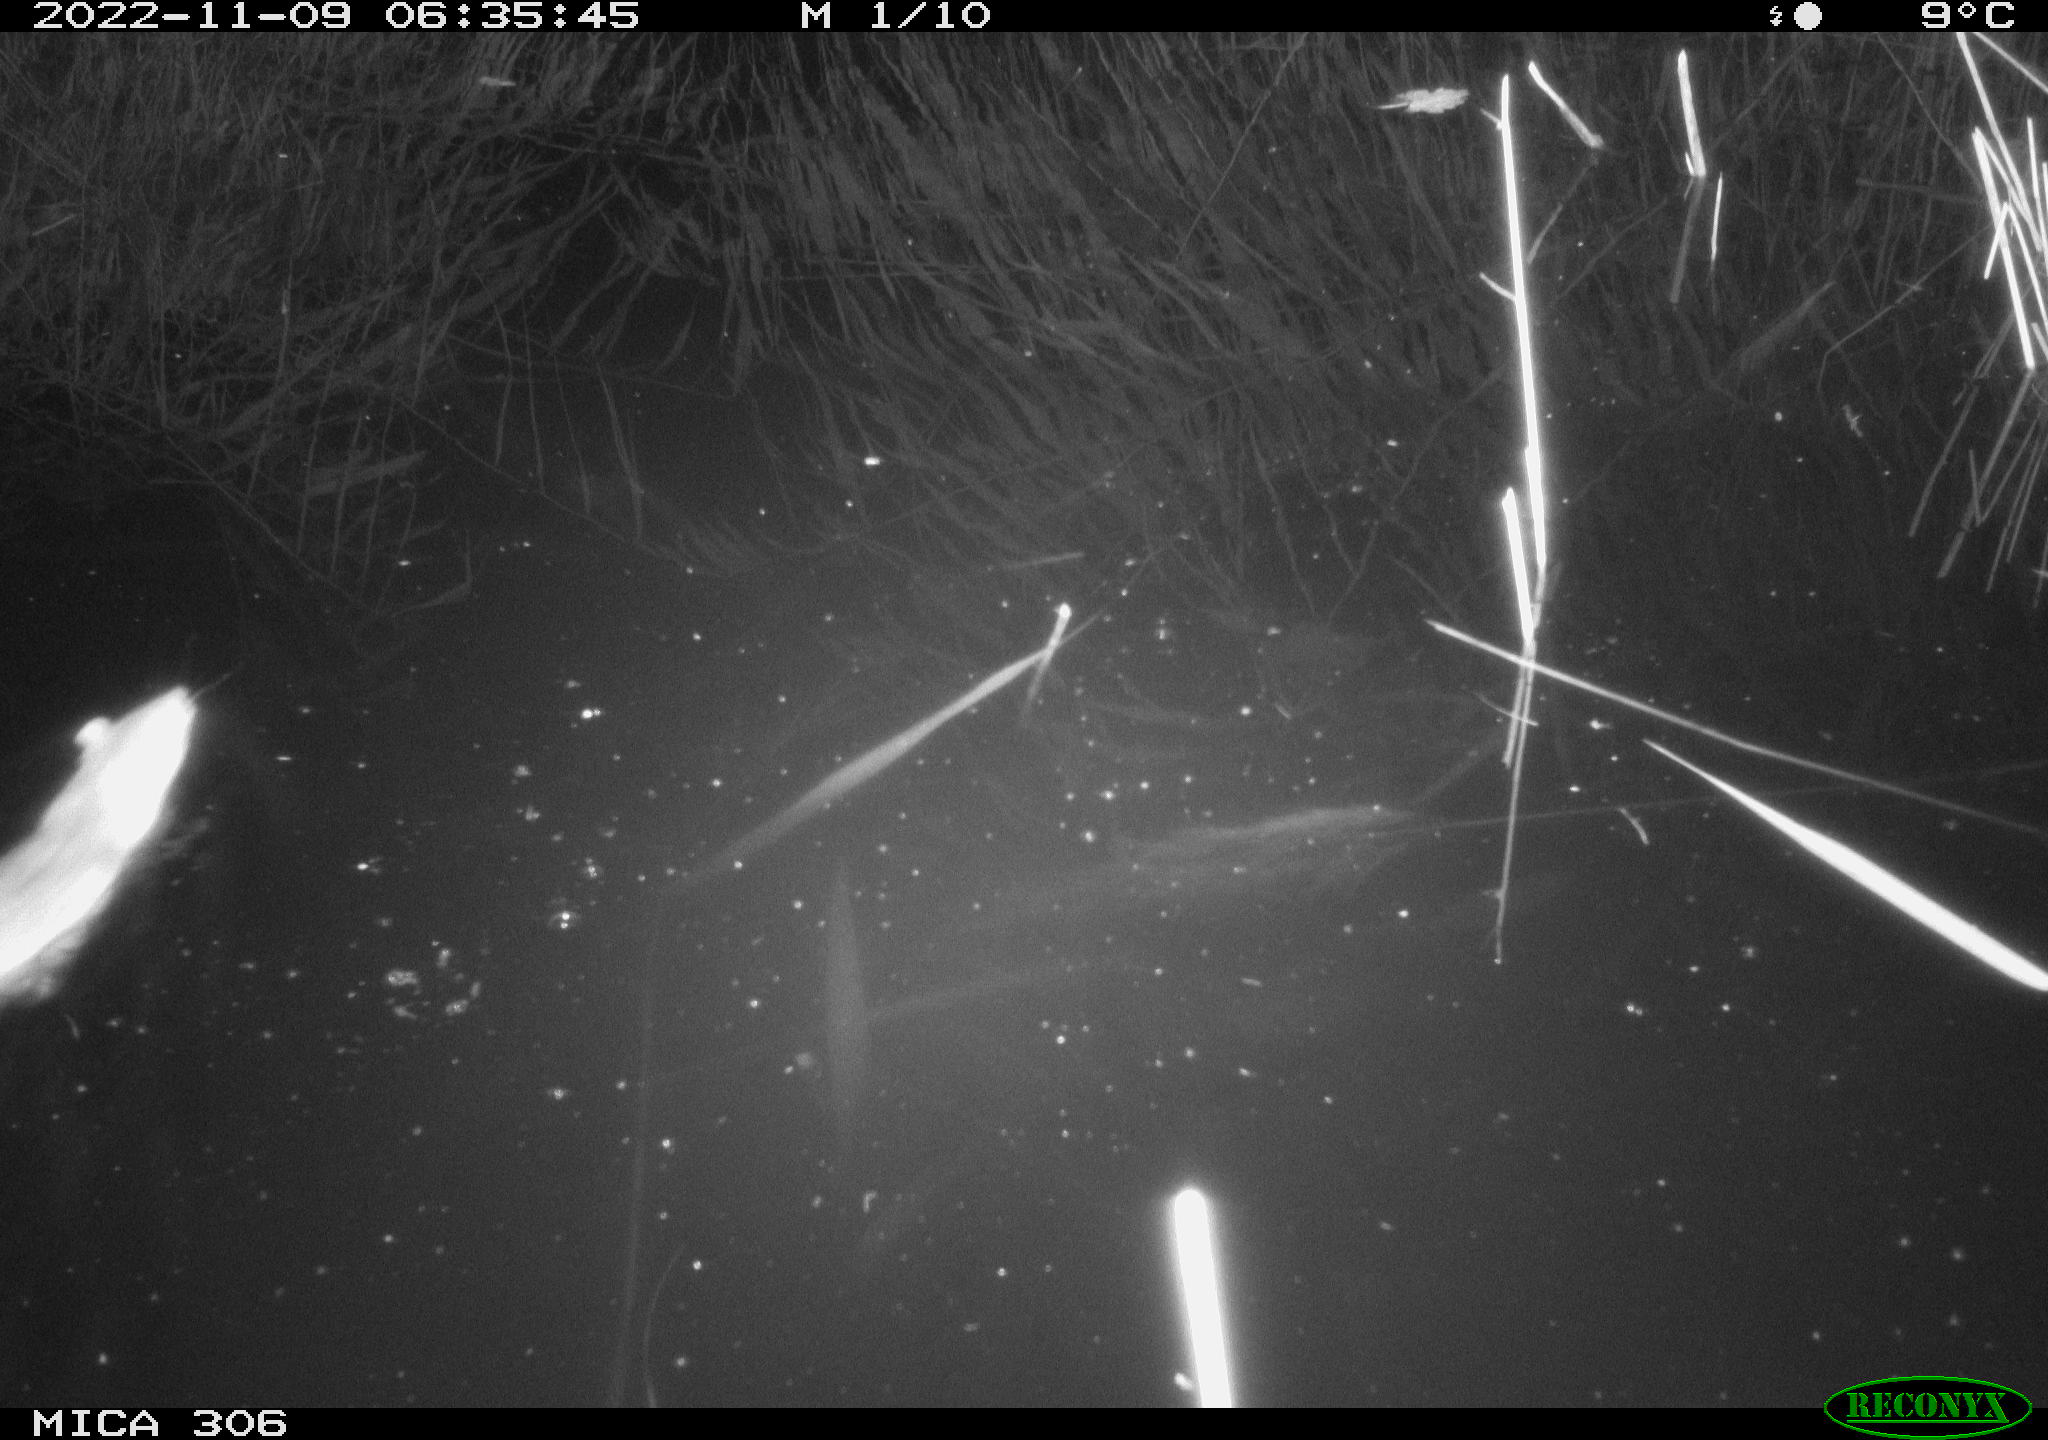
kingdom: Animalia
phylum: Chordata
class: Mammalia
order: Rodentia
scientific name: Rodentia
